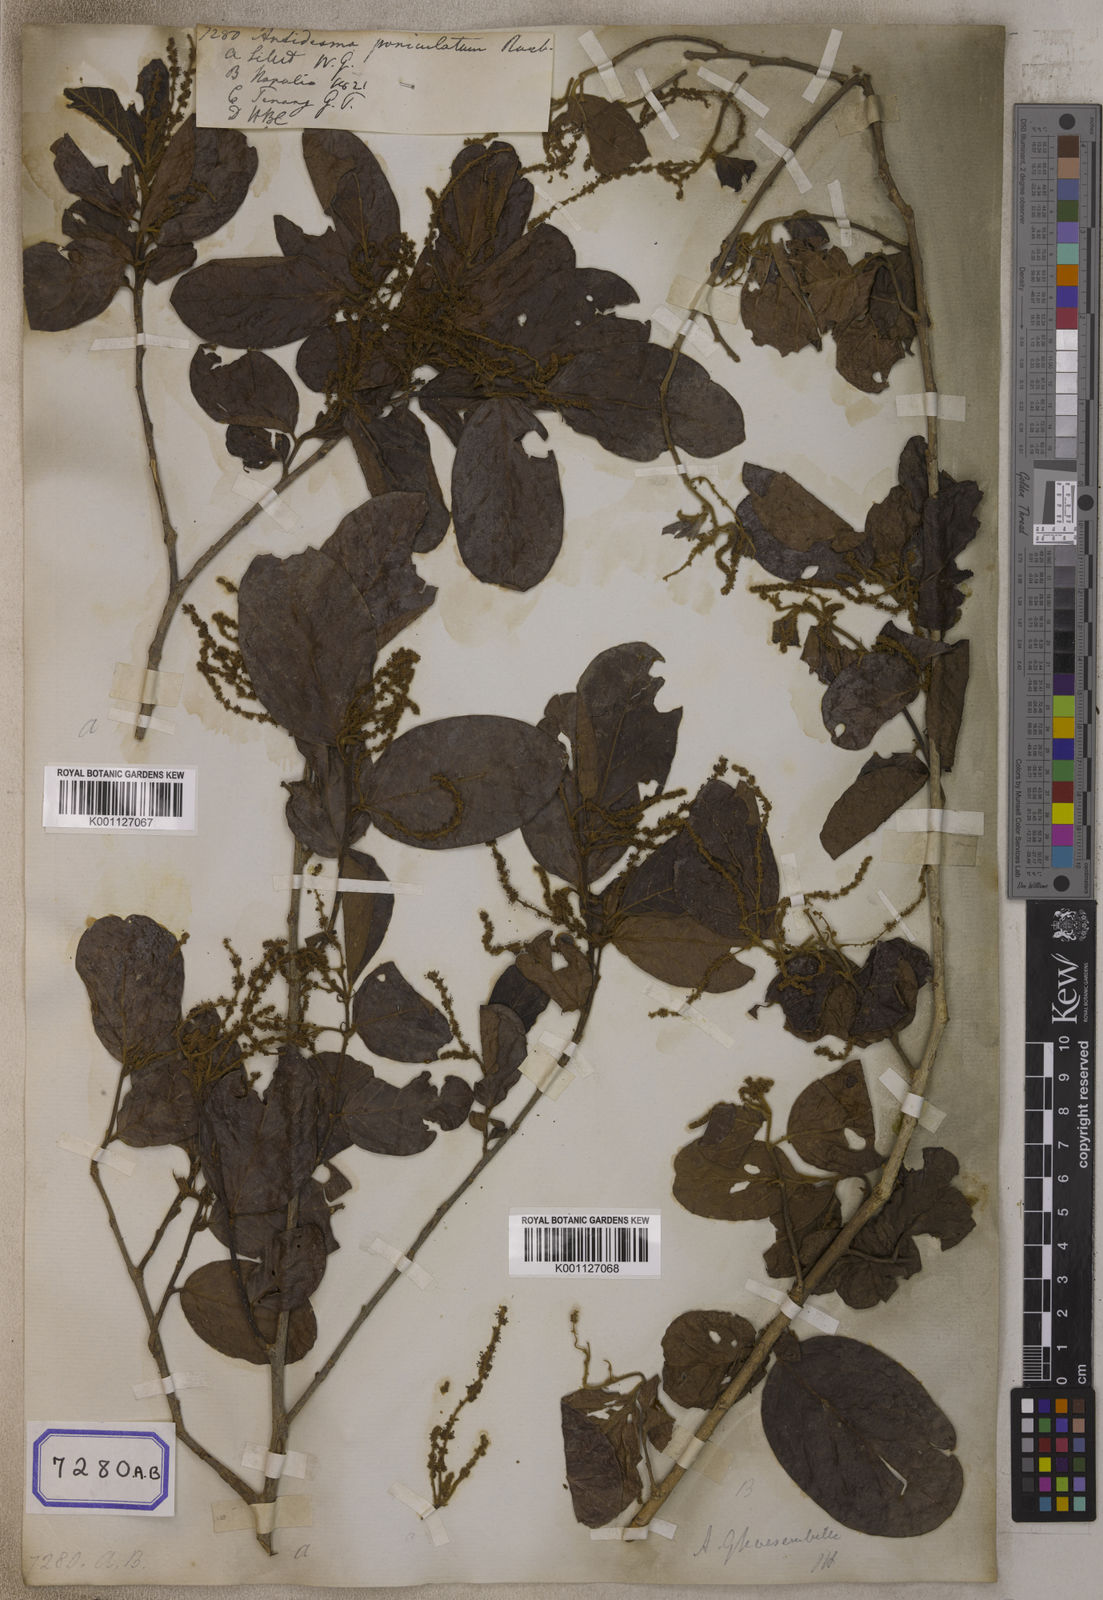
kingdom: Plantae
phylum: Tracheophyta
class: Magnoliopsida
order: Malpighiales
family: Phyllanthaceae
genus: Antidesma
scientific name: Antidesma
